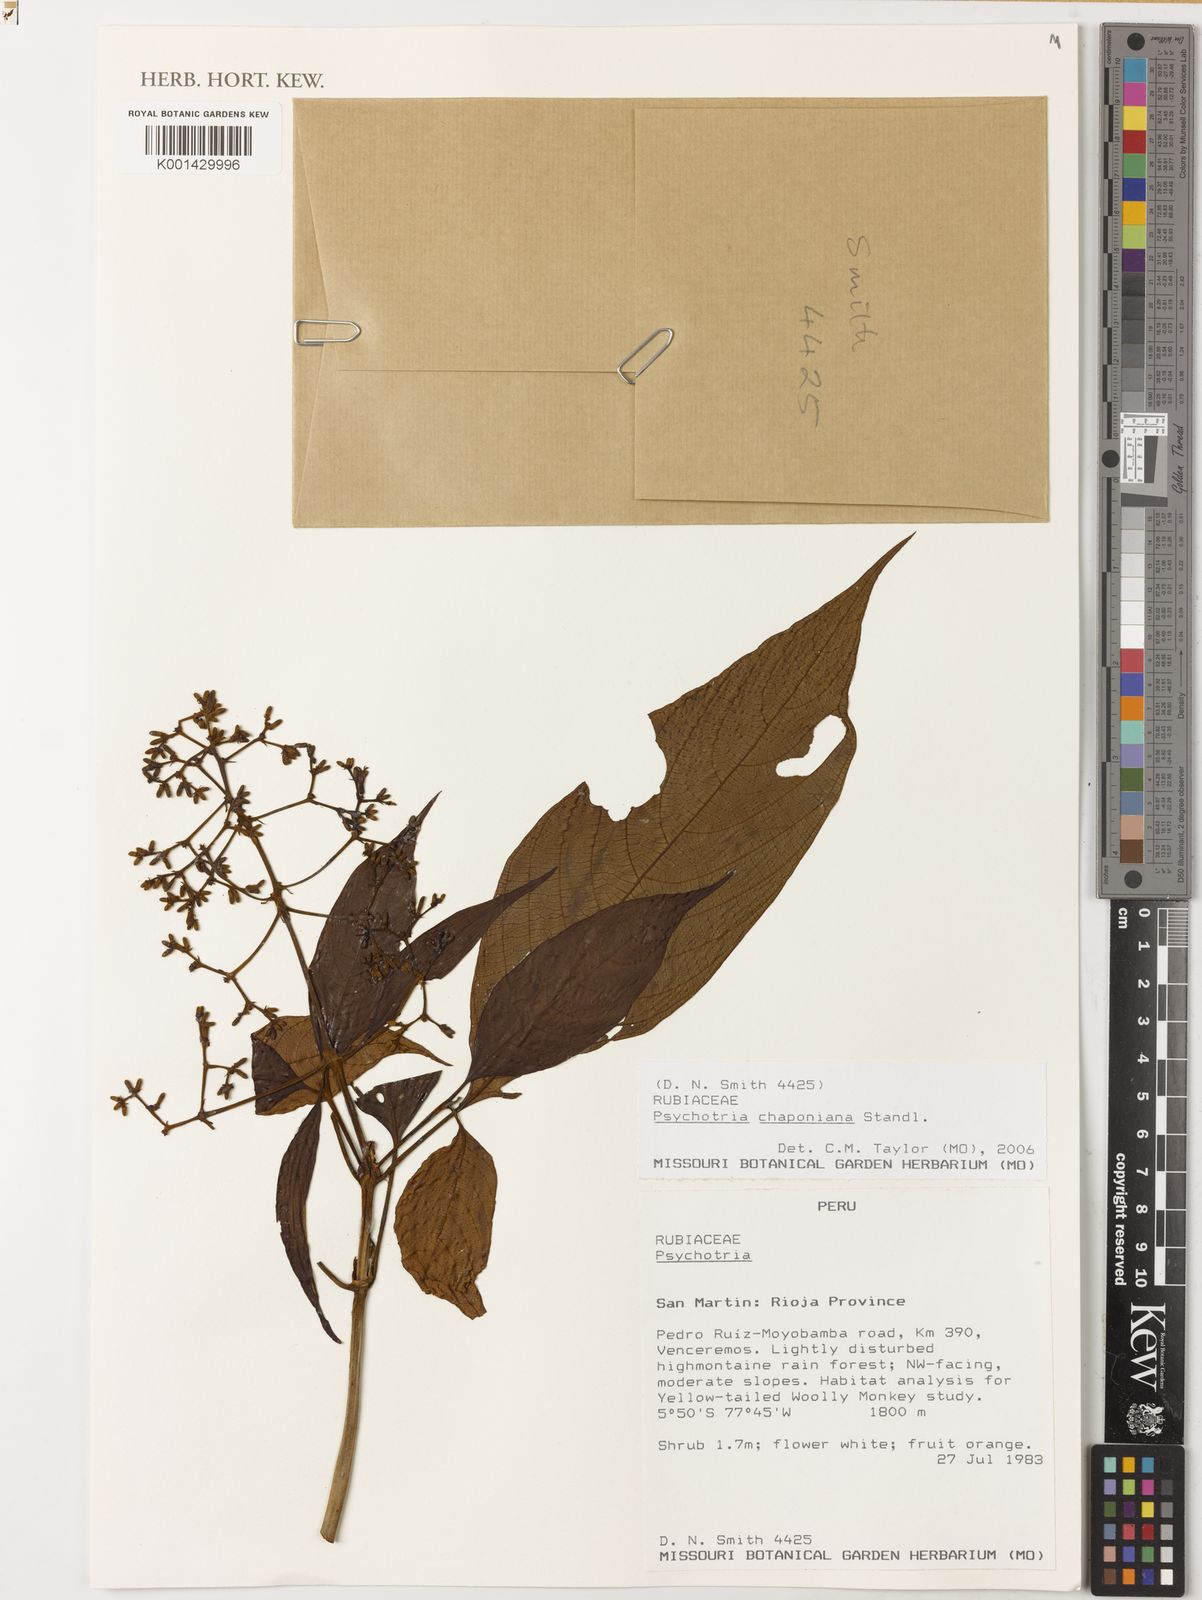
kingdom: Plantae
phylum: Tracheophyta
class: Magnoliopsida
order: Gentianales
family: Rubiaceae
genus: Palicourea
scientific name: Palicourea chaponiana
